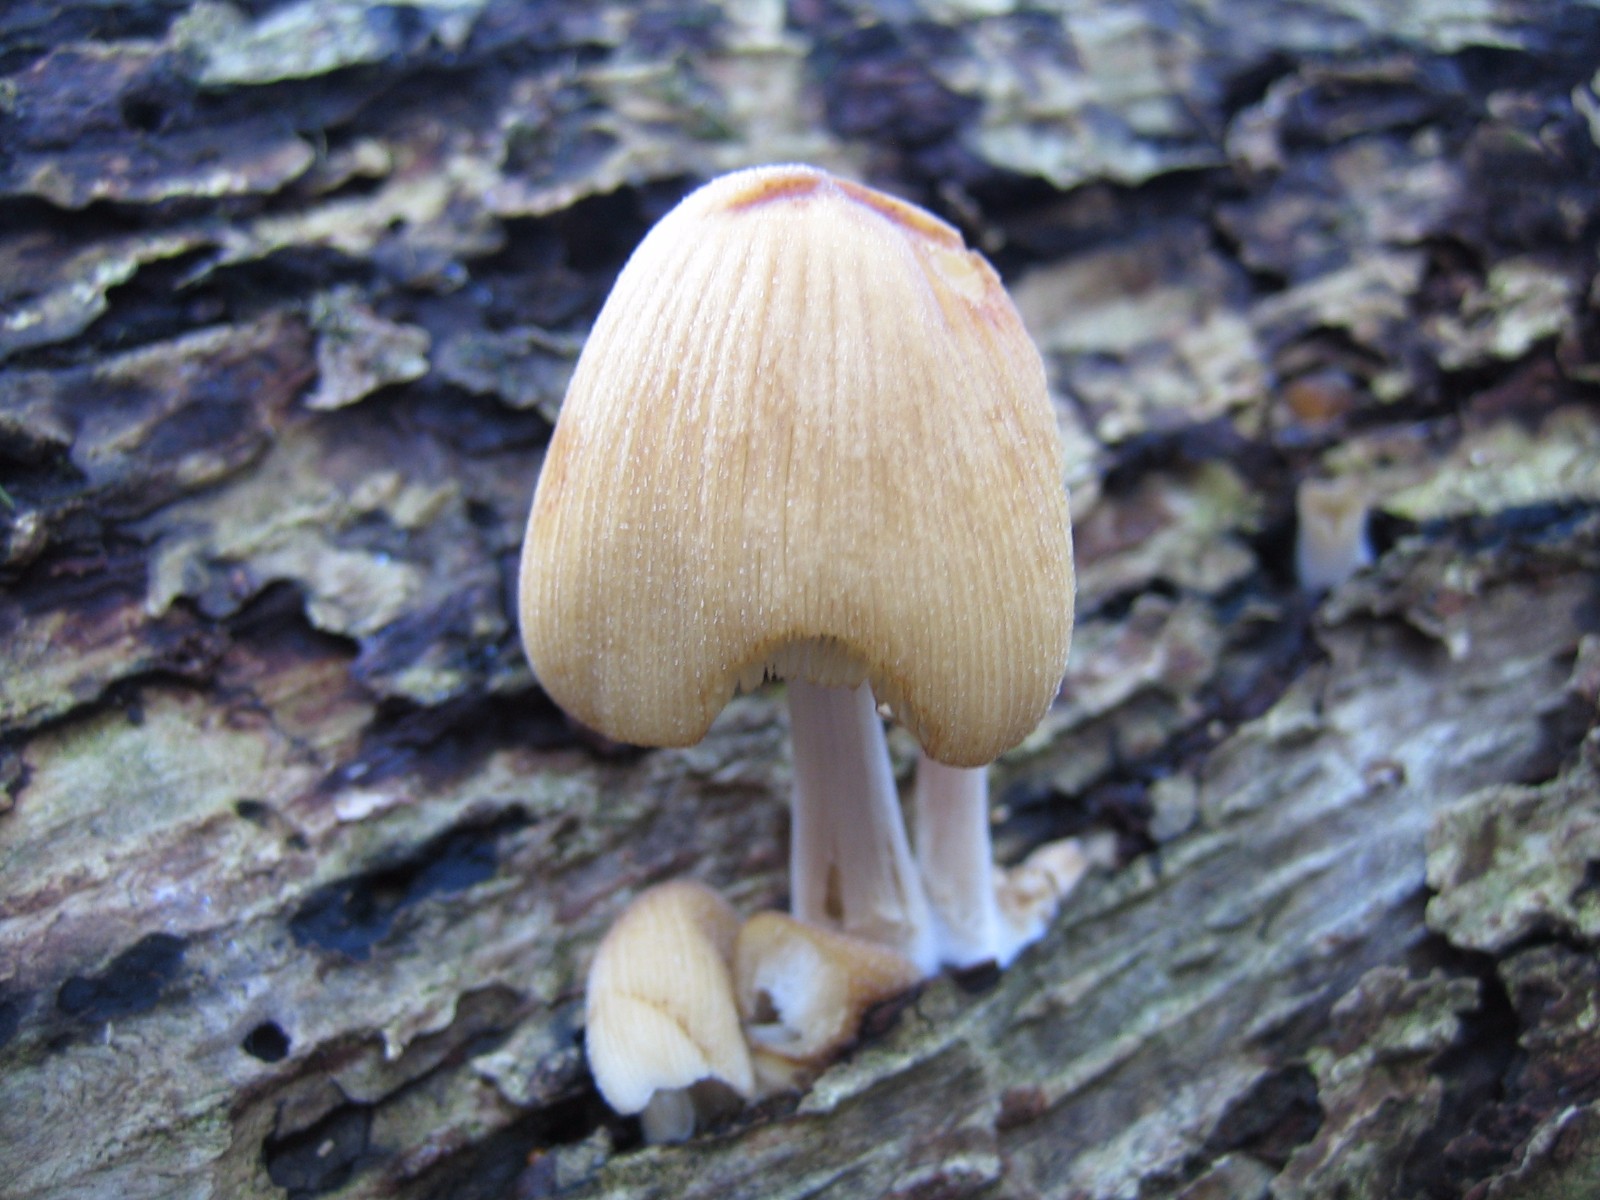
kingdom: Fungi
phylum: Basidiomycota
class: Agaricomycetes
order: Agaricales
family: Psathyrellaceae
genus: Coprinellus
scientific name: Coprinellus micaceus
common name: glimmer-blækhat
